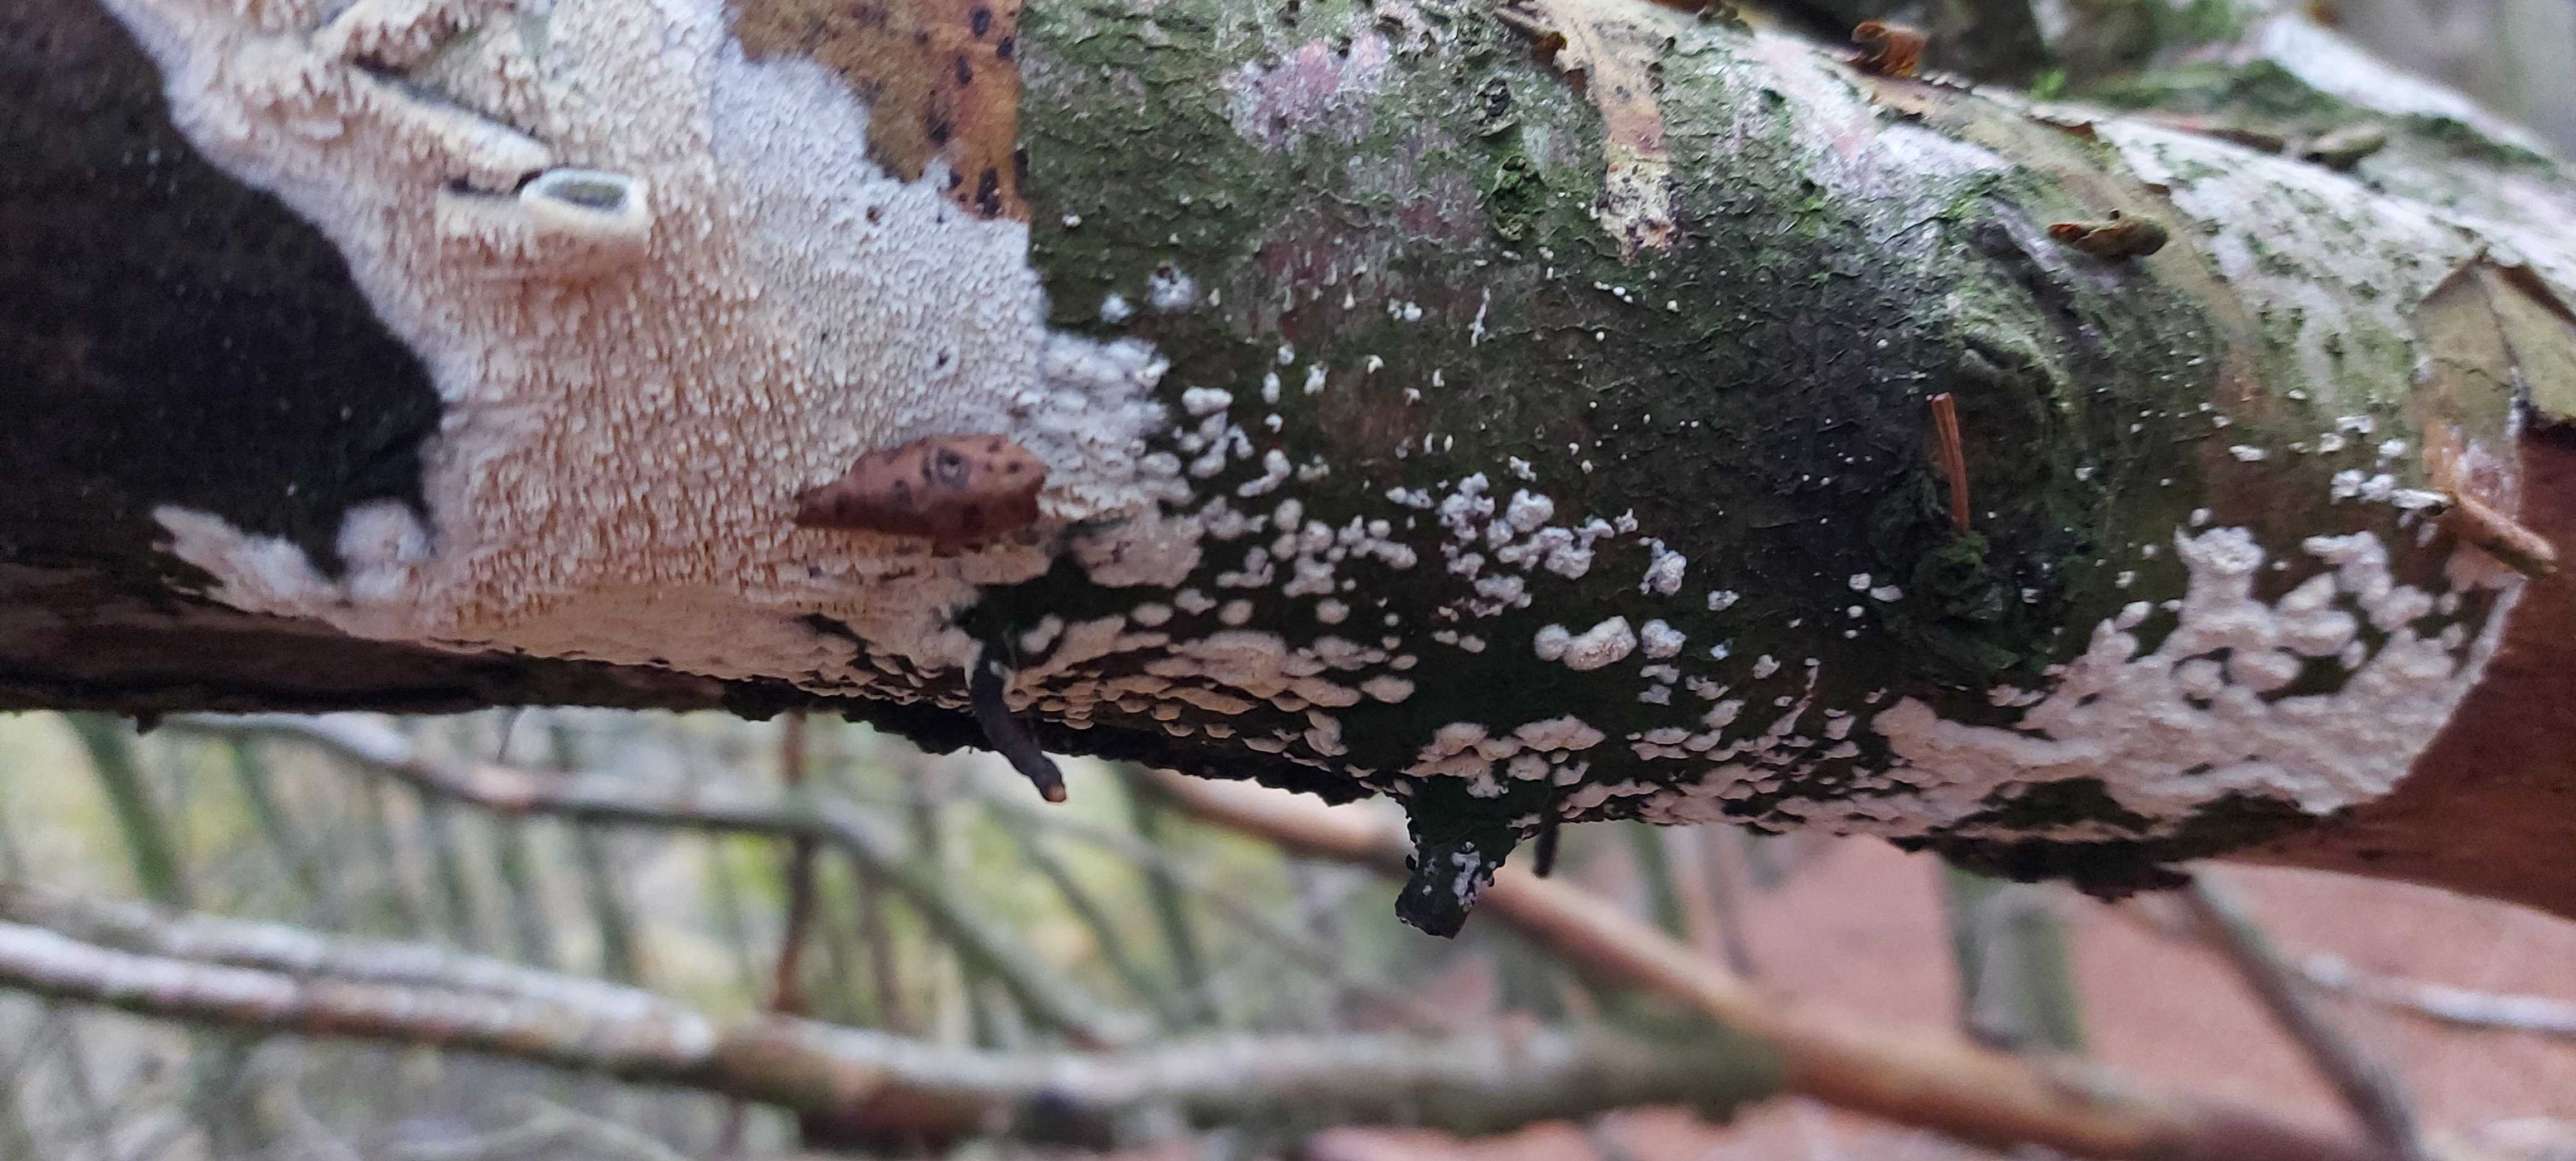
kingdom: Fungi
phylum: Basidiomycota
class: Agaricomycetes
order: Hymenochaetales
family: Schizoporaceae
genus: Schizopora
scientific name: Schizopora paradoxa
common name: hvid tandsvamp
